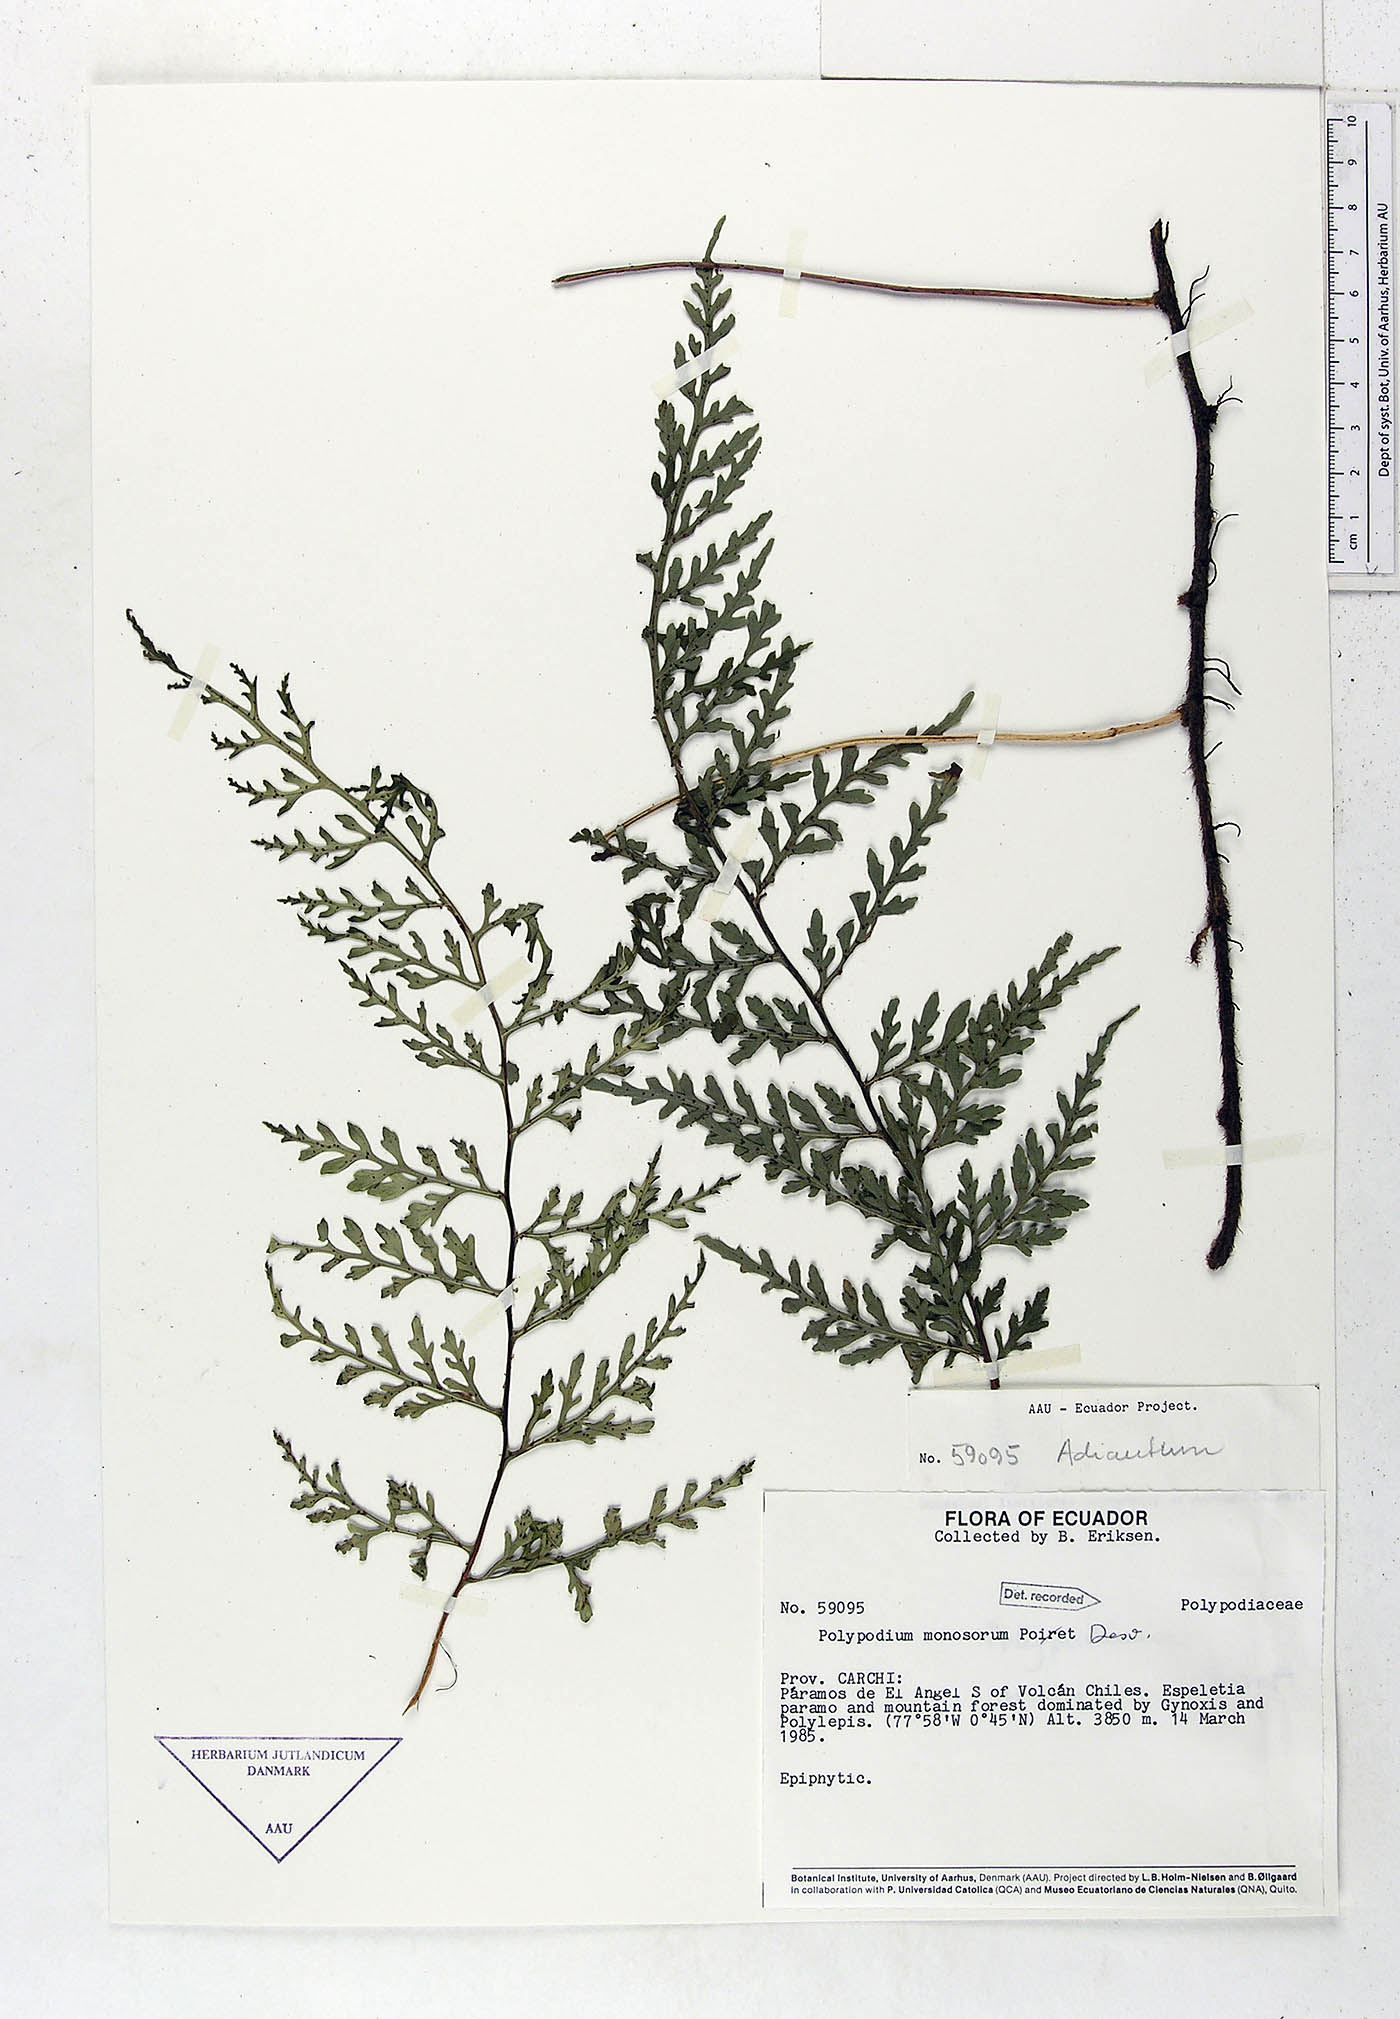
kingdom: Plantae
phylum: Tracheophyta
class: Polypodiopsida
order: Polypodiales
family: Polypodiaceae
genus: Pleopeltis
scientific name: Pleopeltis monosora
